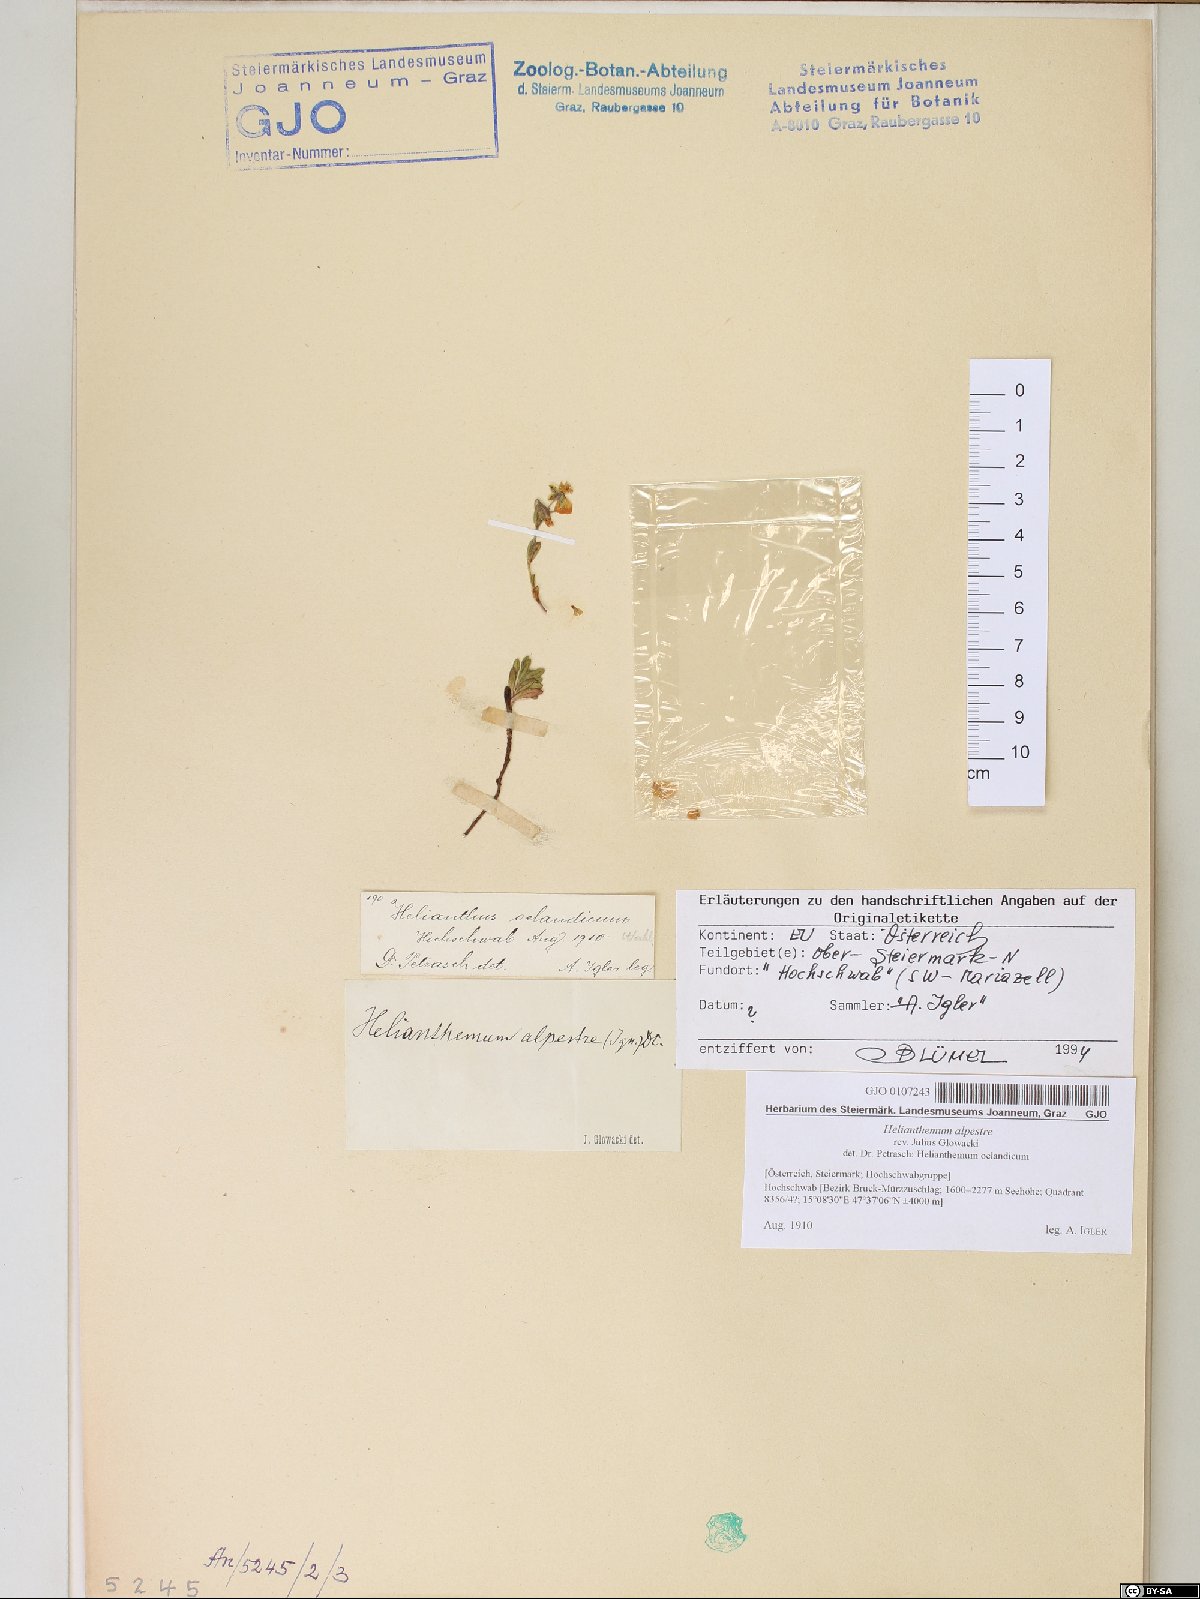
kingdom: Plantae
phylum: Tracheophyta
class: Magnoliopsida
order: Malvales
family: Cistaceae
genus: Helianthemum
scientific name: Helianthemum alpestre
